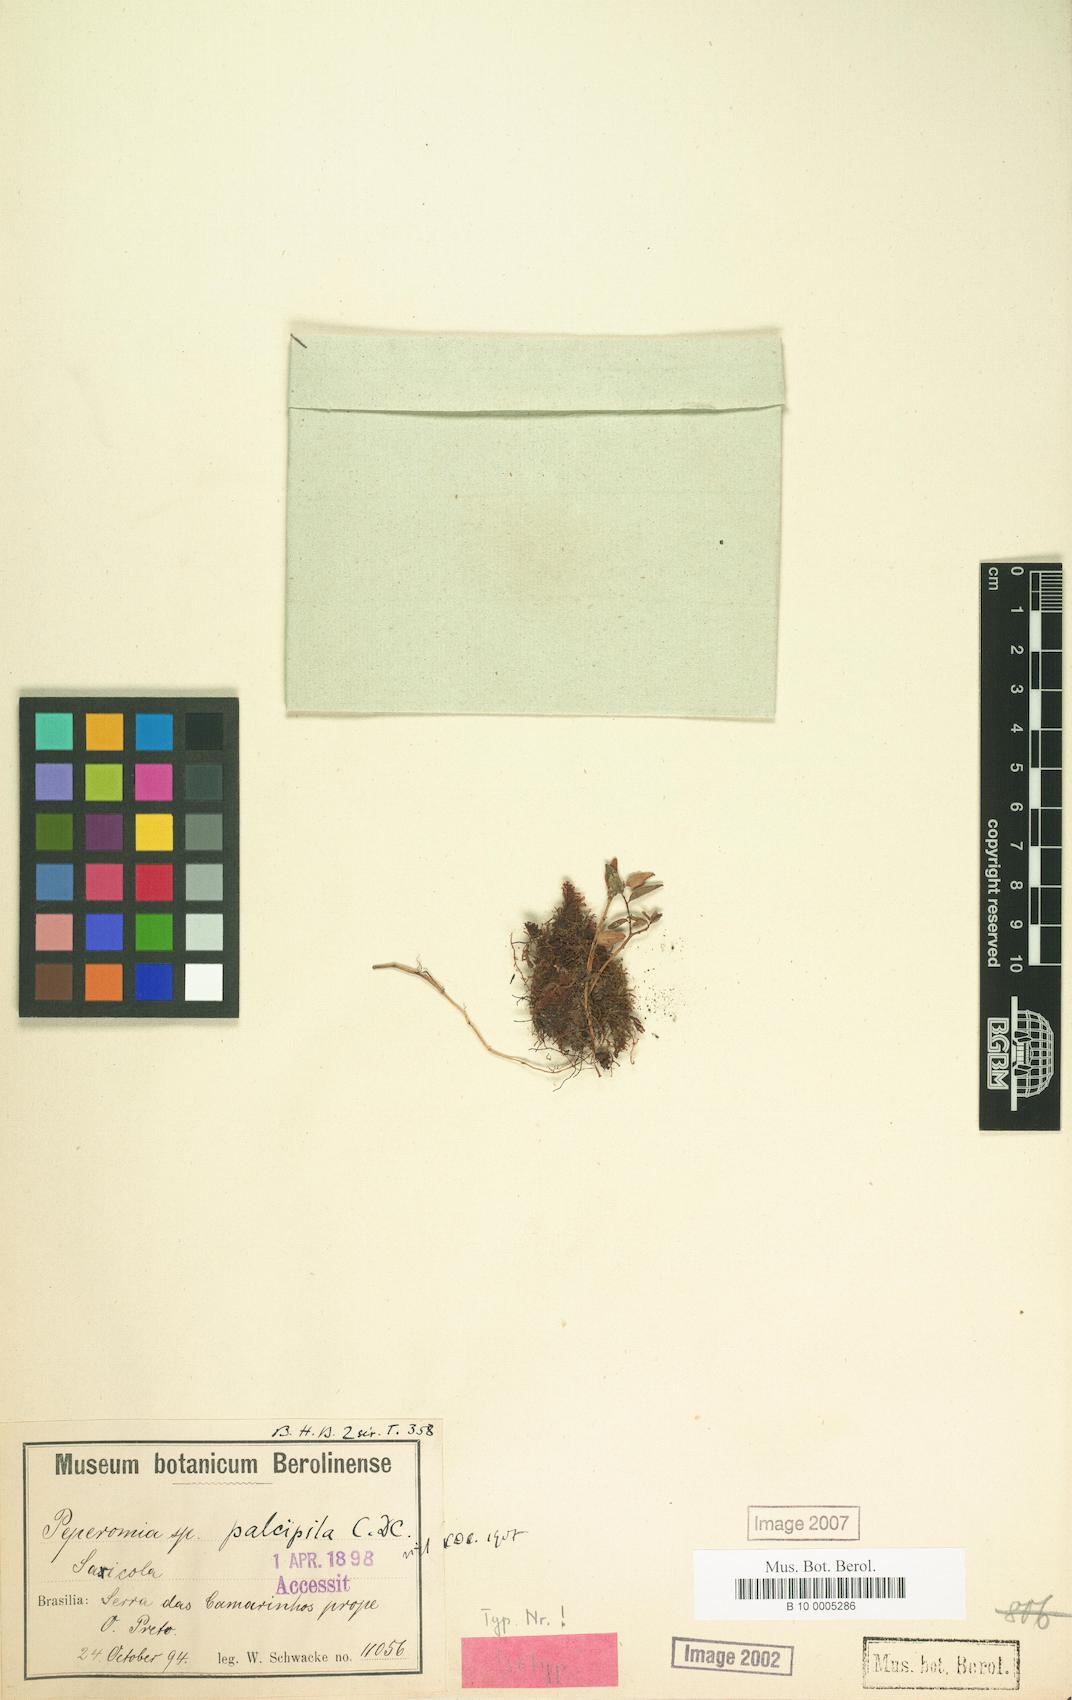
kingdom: Plantae
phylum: Tracheophyta
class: Magnoliopsida
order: Piperales
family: Piperaceae
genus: Peperomia
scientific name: Peperomia tenella
